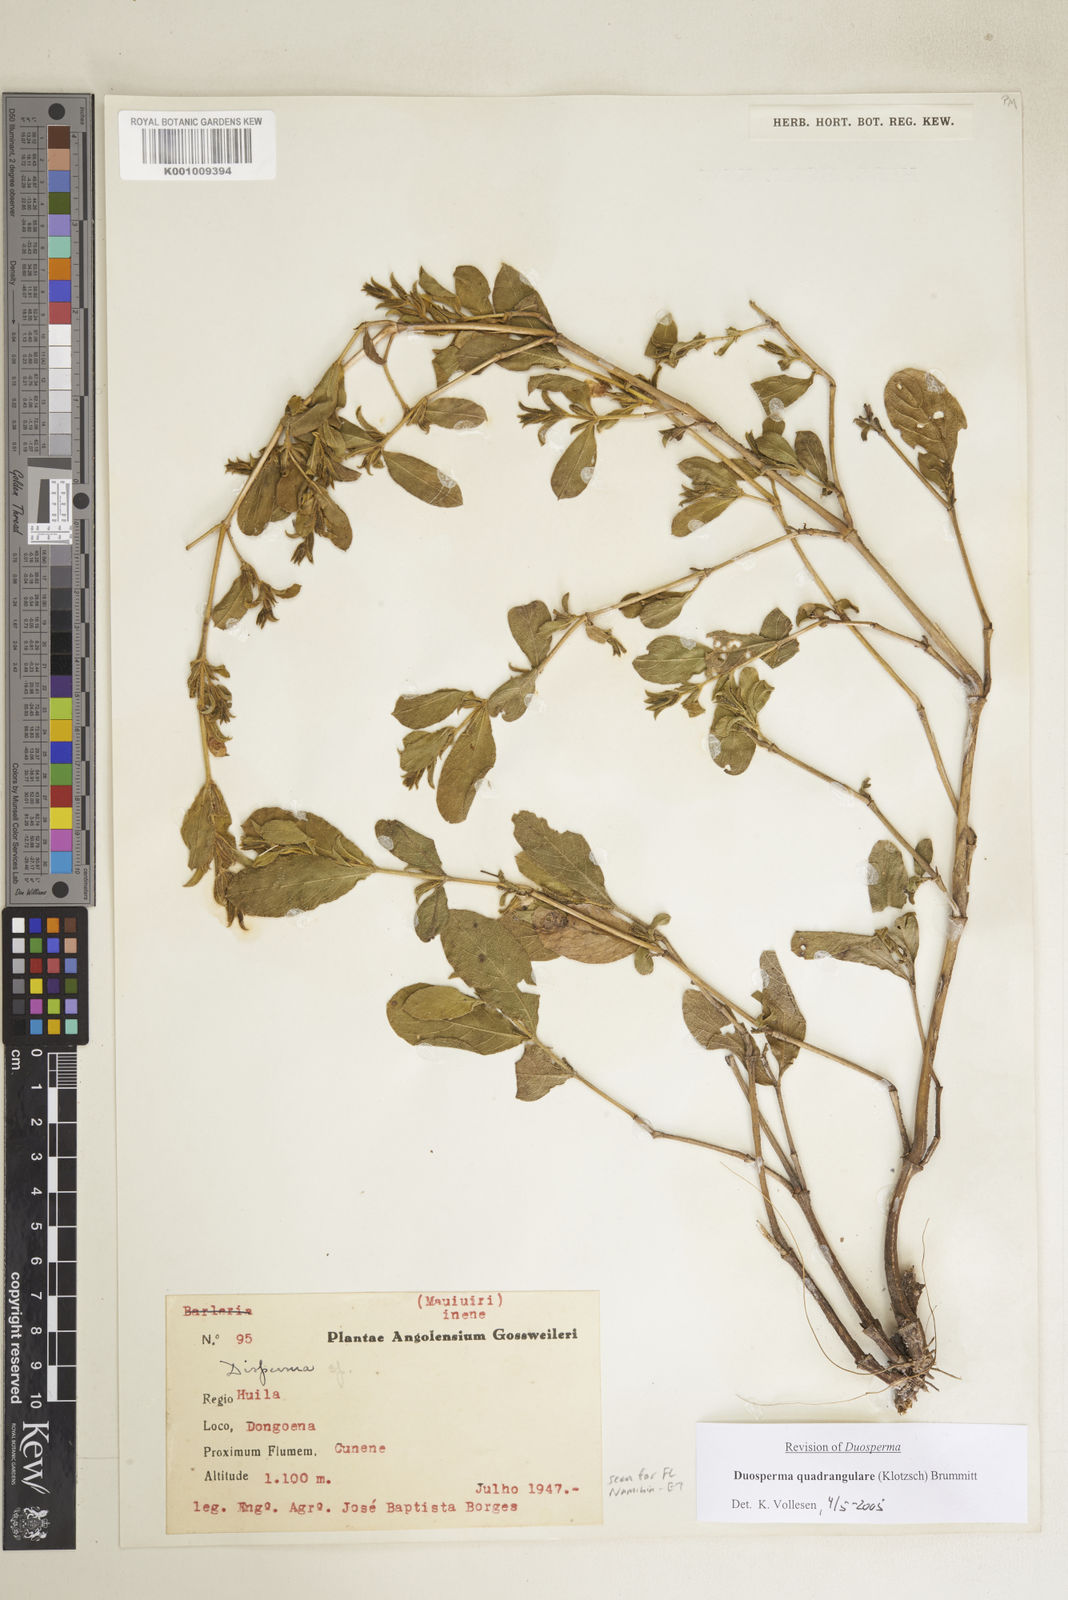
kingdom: Plantae
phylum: Tracheophyta
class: Magnoliopsida
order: Lamiales
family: Acanthaceae
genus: Duosperma
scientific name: Duosperma quadrangulare
